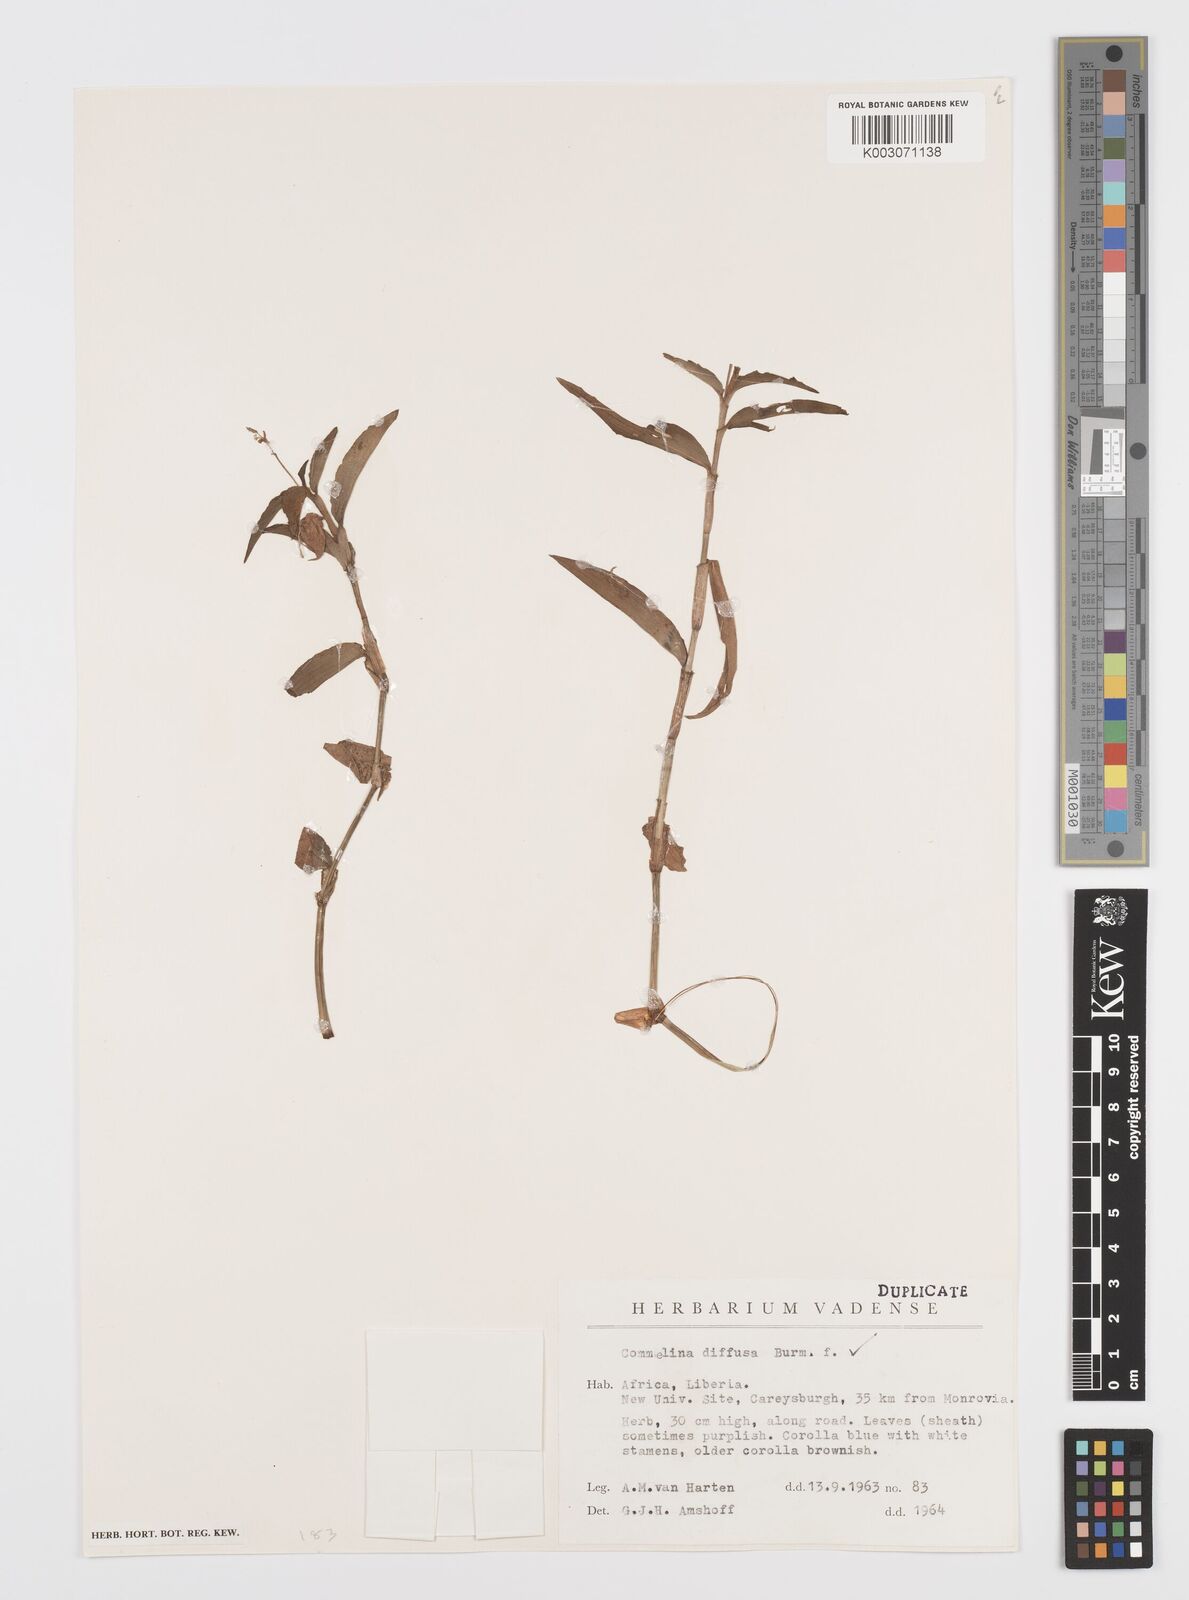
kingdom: Plantae
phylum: Tracheophyta
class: Liliopsida
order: Commelinales
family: Commelinaceae
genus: Commelina
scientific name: Commelina diffusa
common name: Climbing dayflower
